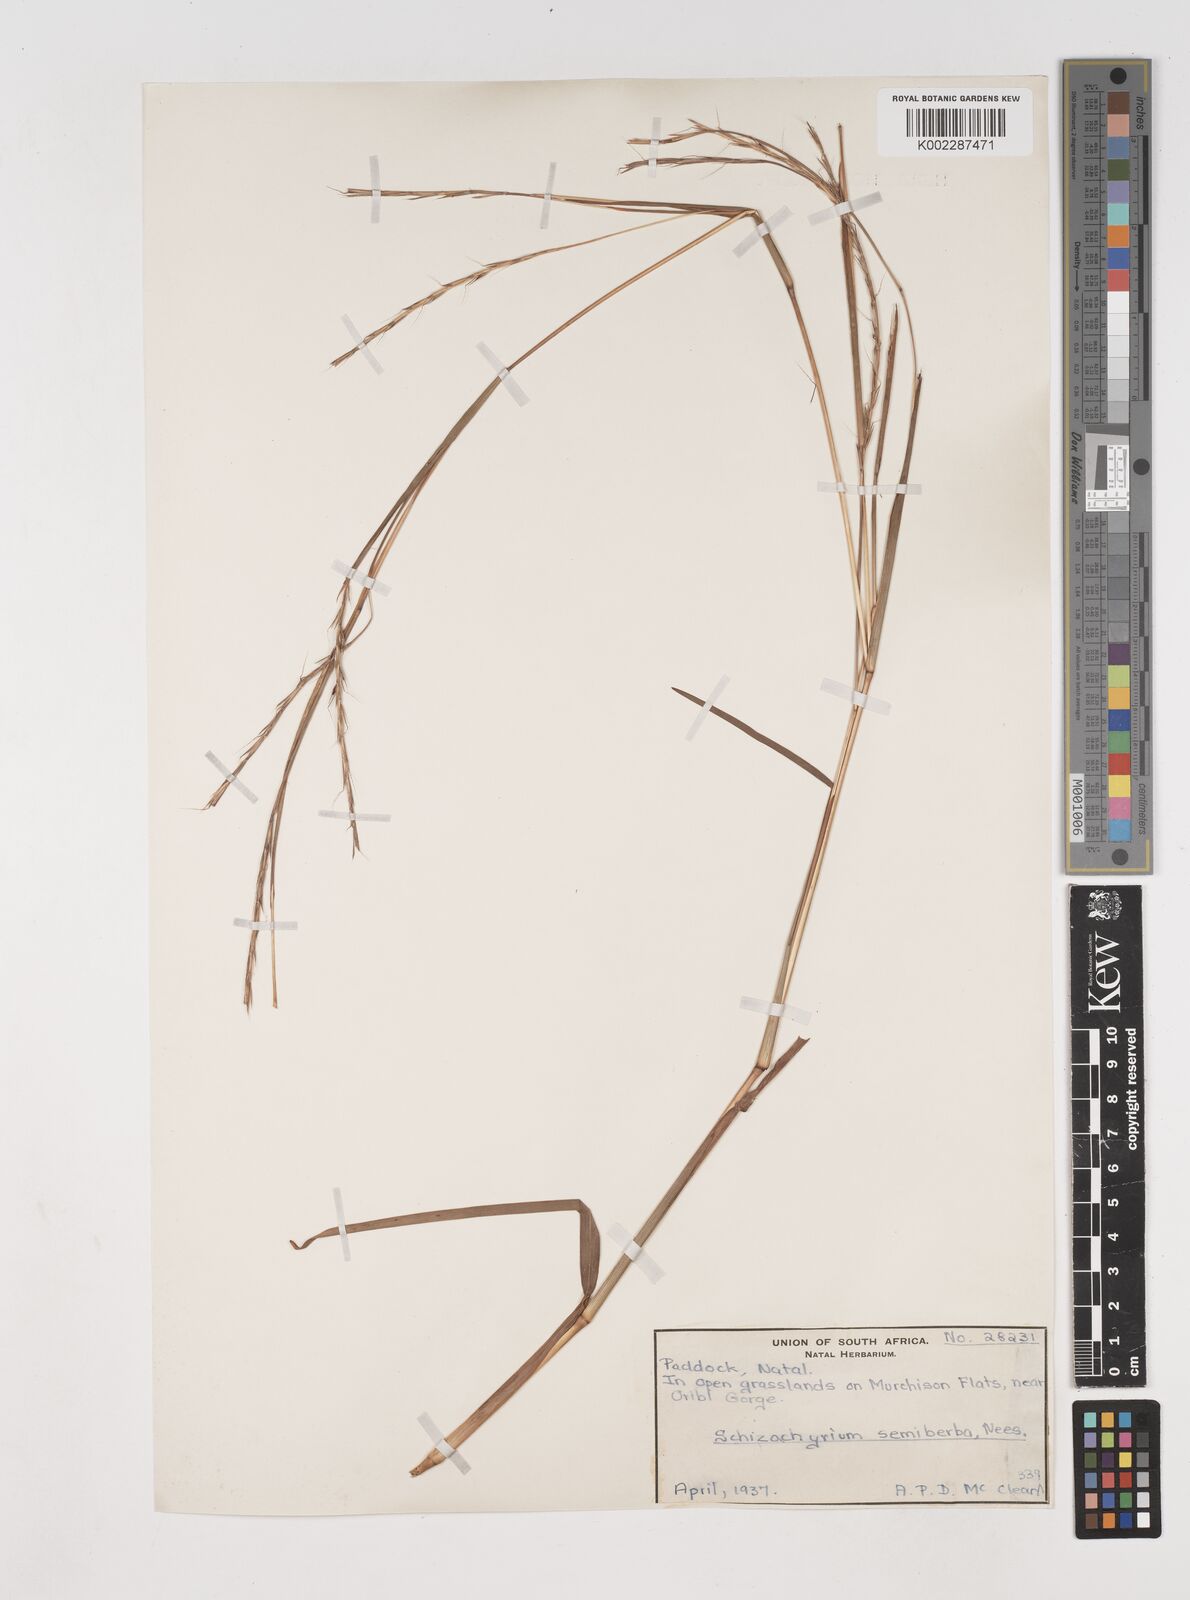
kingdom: Plantae
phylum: Tracheophyta
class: Liliopsida
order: Poales
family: Poaceae
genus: Schizachyrium
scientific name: Schizachyrium sanguineum
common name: Crimson bluestem
